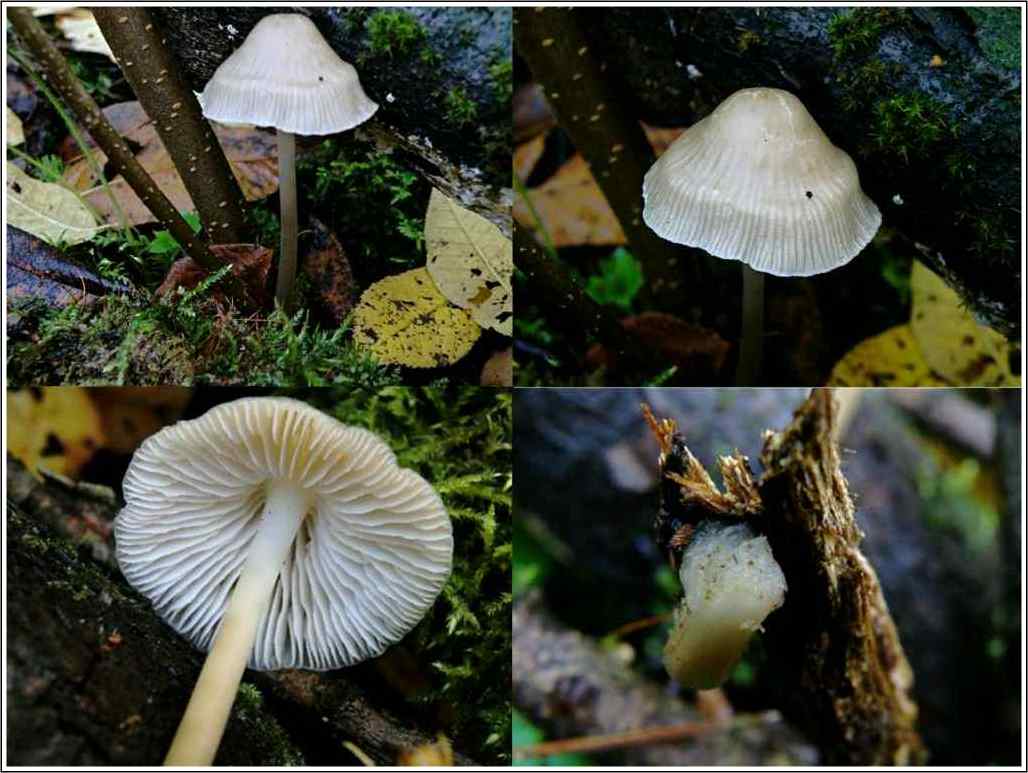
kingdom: Fungi
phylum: Basidiomycota
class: Agaricomycetes
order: Agaricales
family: Mycenaceae
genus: Mycena
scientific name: Mycena galericulata
